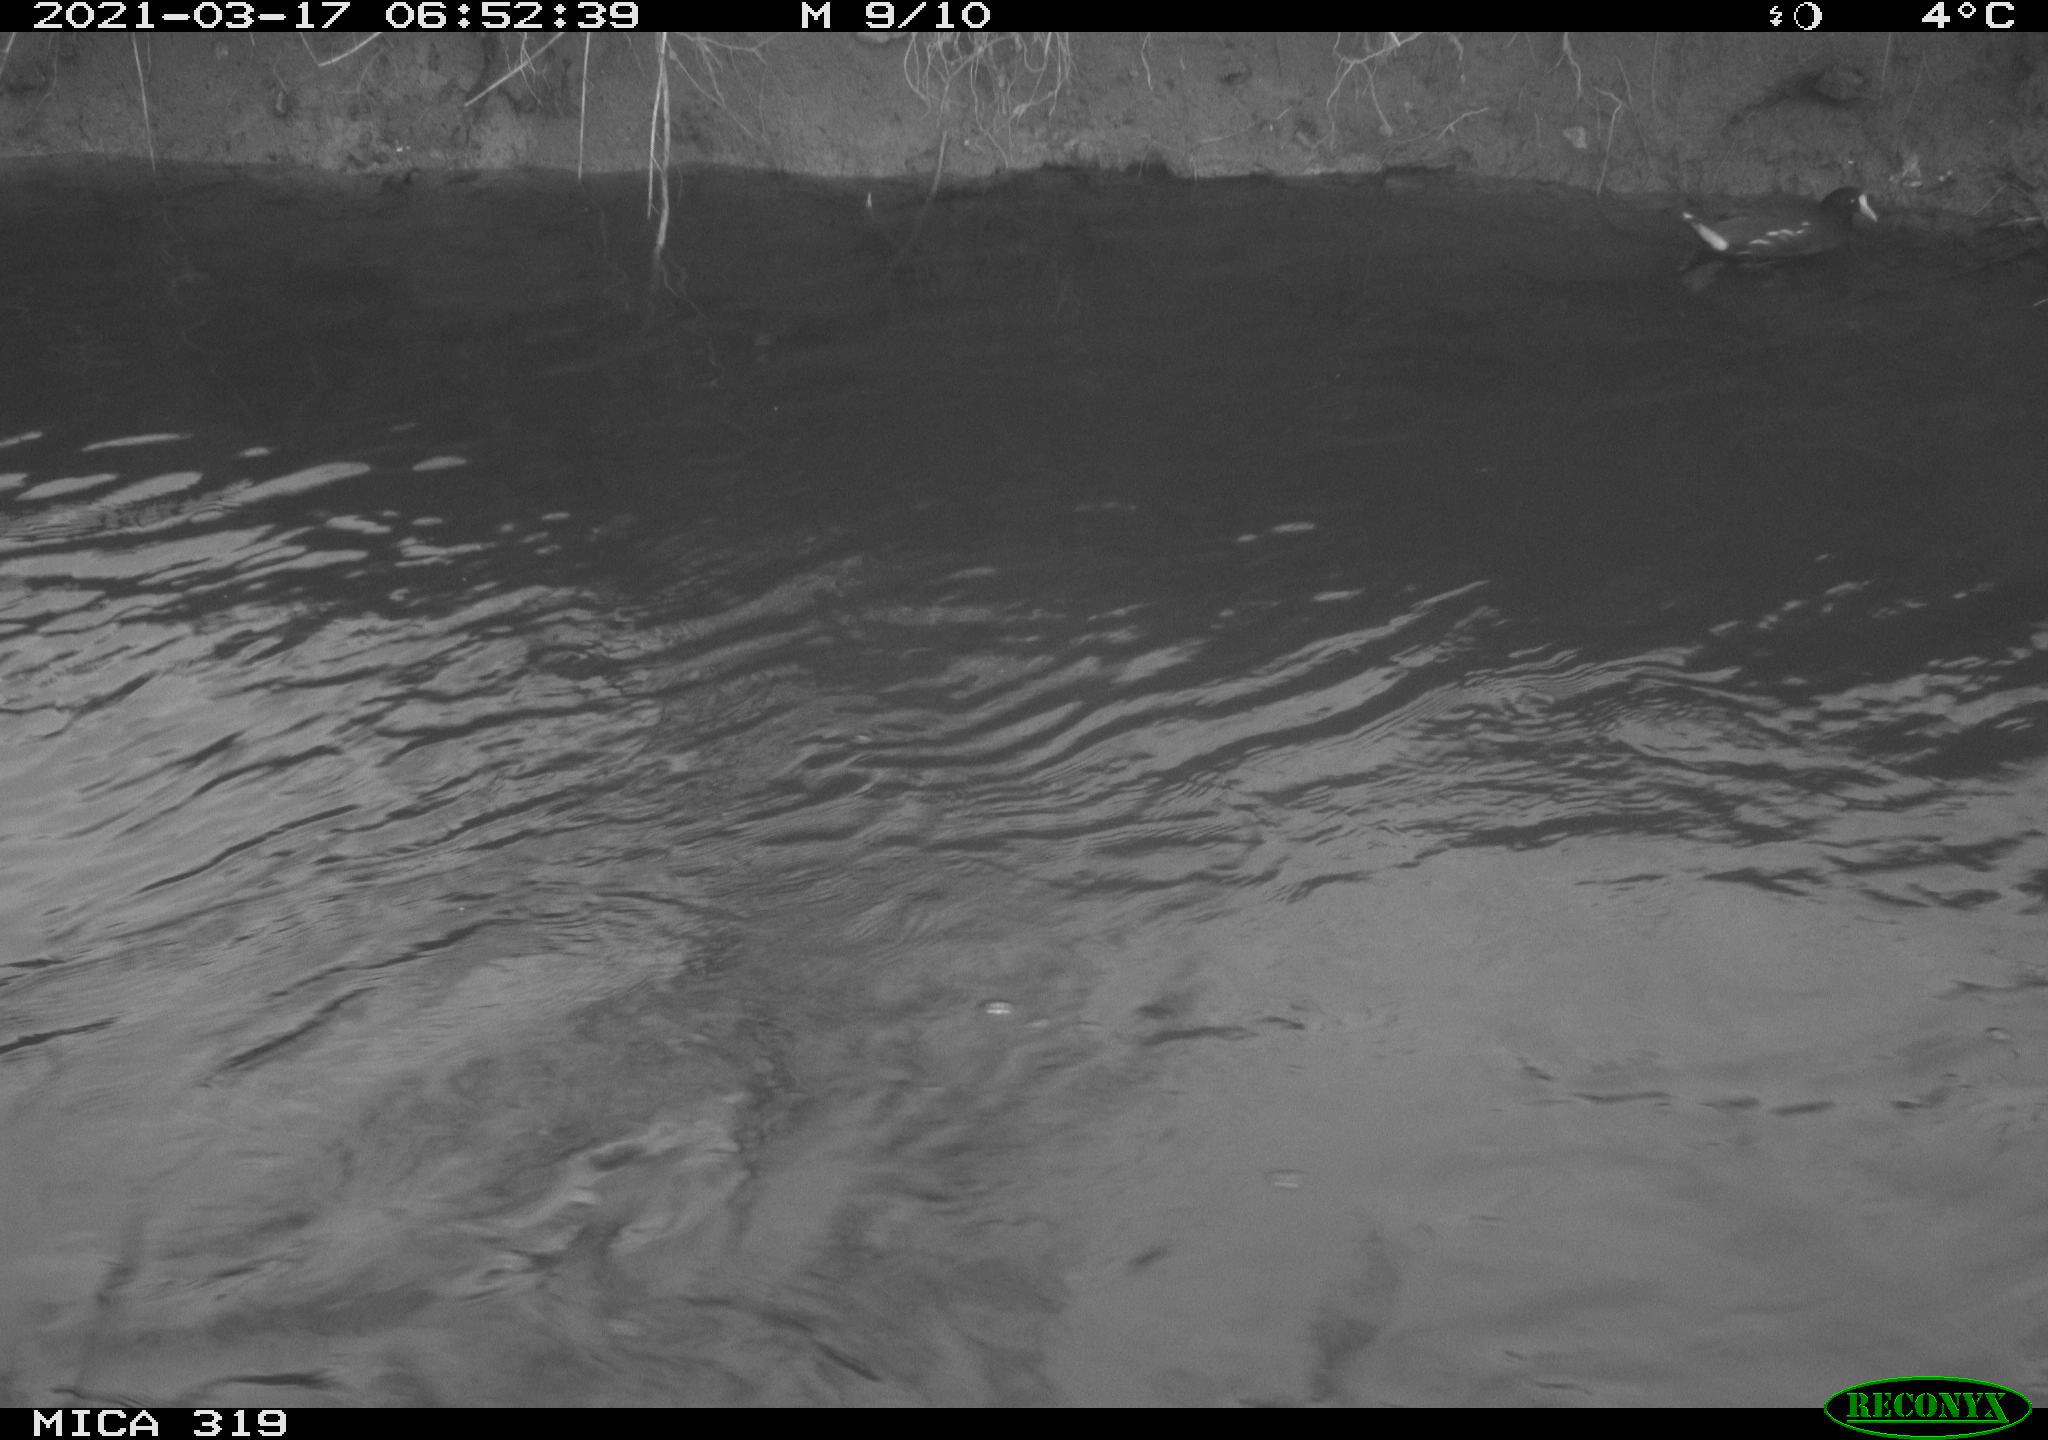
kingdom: Animalia
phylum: Chordata
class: Aves
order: Gruiformes
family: Rallidae
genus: Gallinula
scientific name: Gallinula chloropus
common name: Common moorhen
